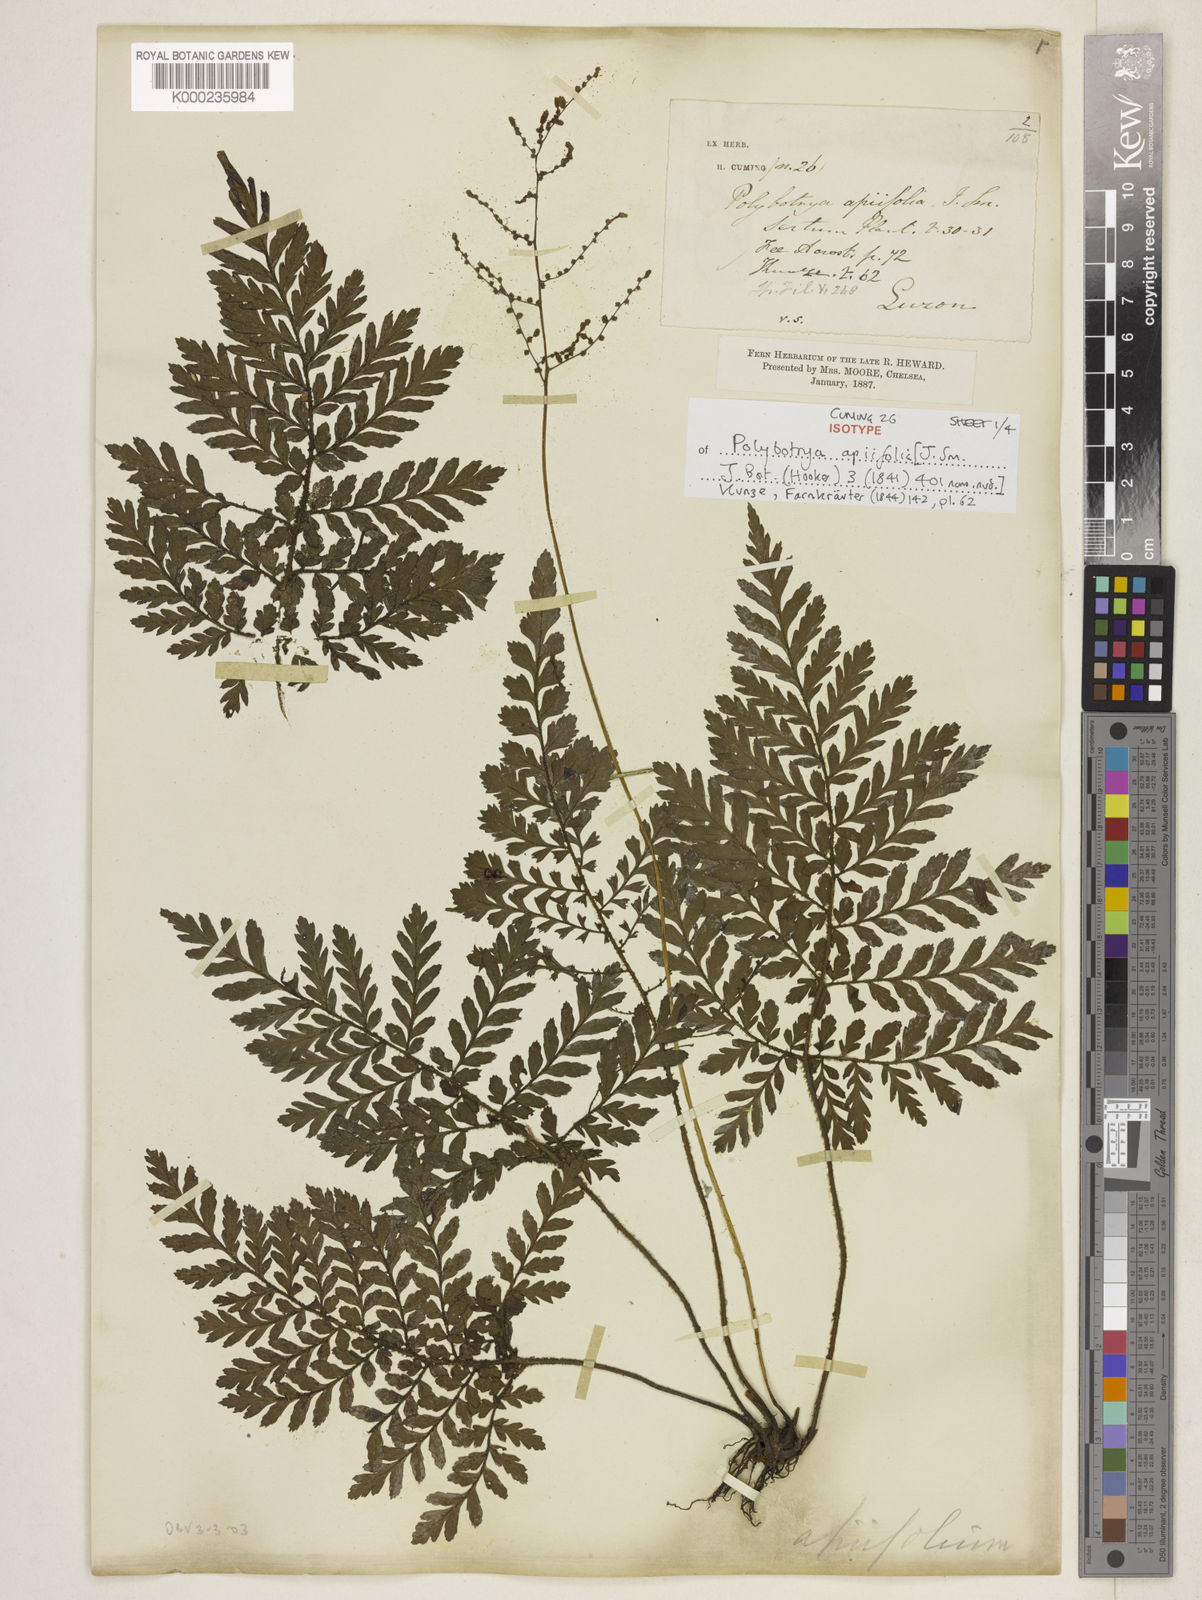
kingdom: Plantae
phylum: Tracheophyta
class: Polypodiopsida
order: Polypodiales
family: Tectariaceae
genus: Psomiocarpa
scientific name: Psomiocarpa
